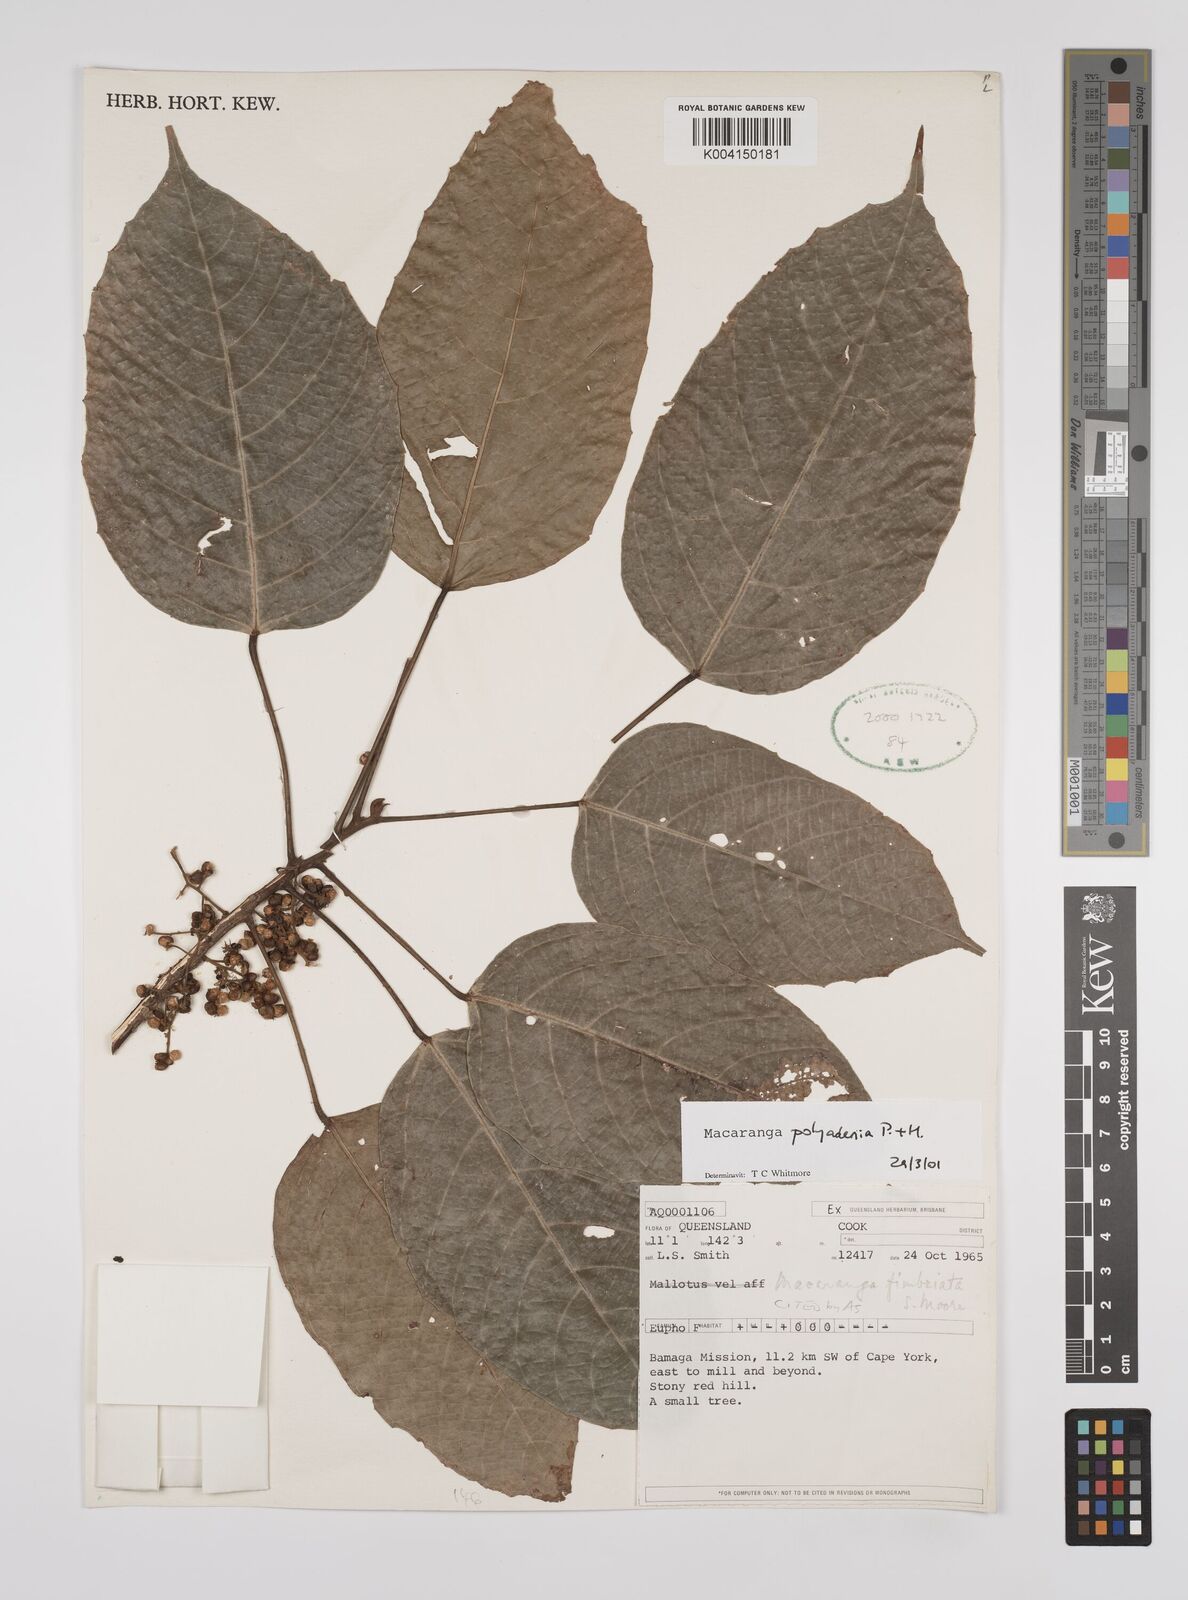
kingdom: Plantae
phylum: Tracheophyta
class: Magnoliopsida
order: Malpighiales
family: Euphorbiaceae
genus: Macaranga
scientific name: Macaranga polyadenia
